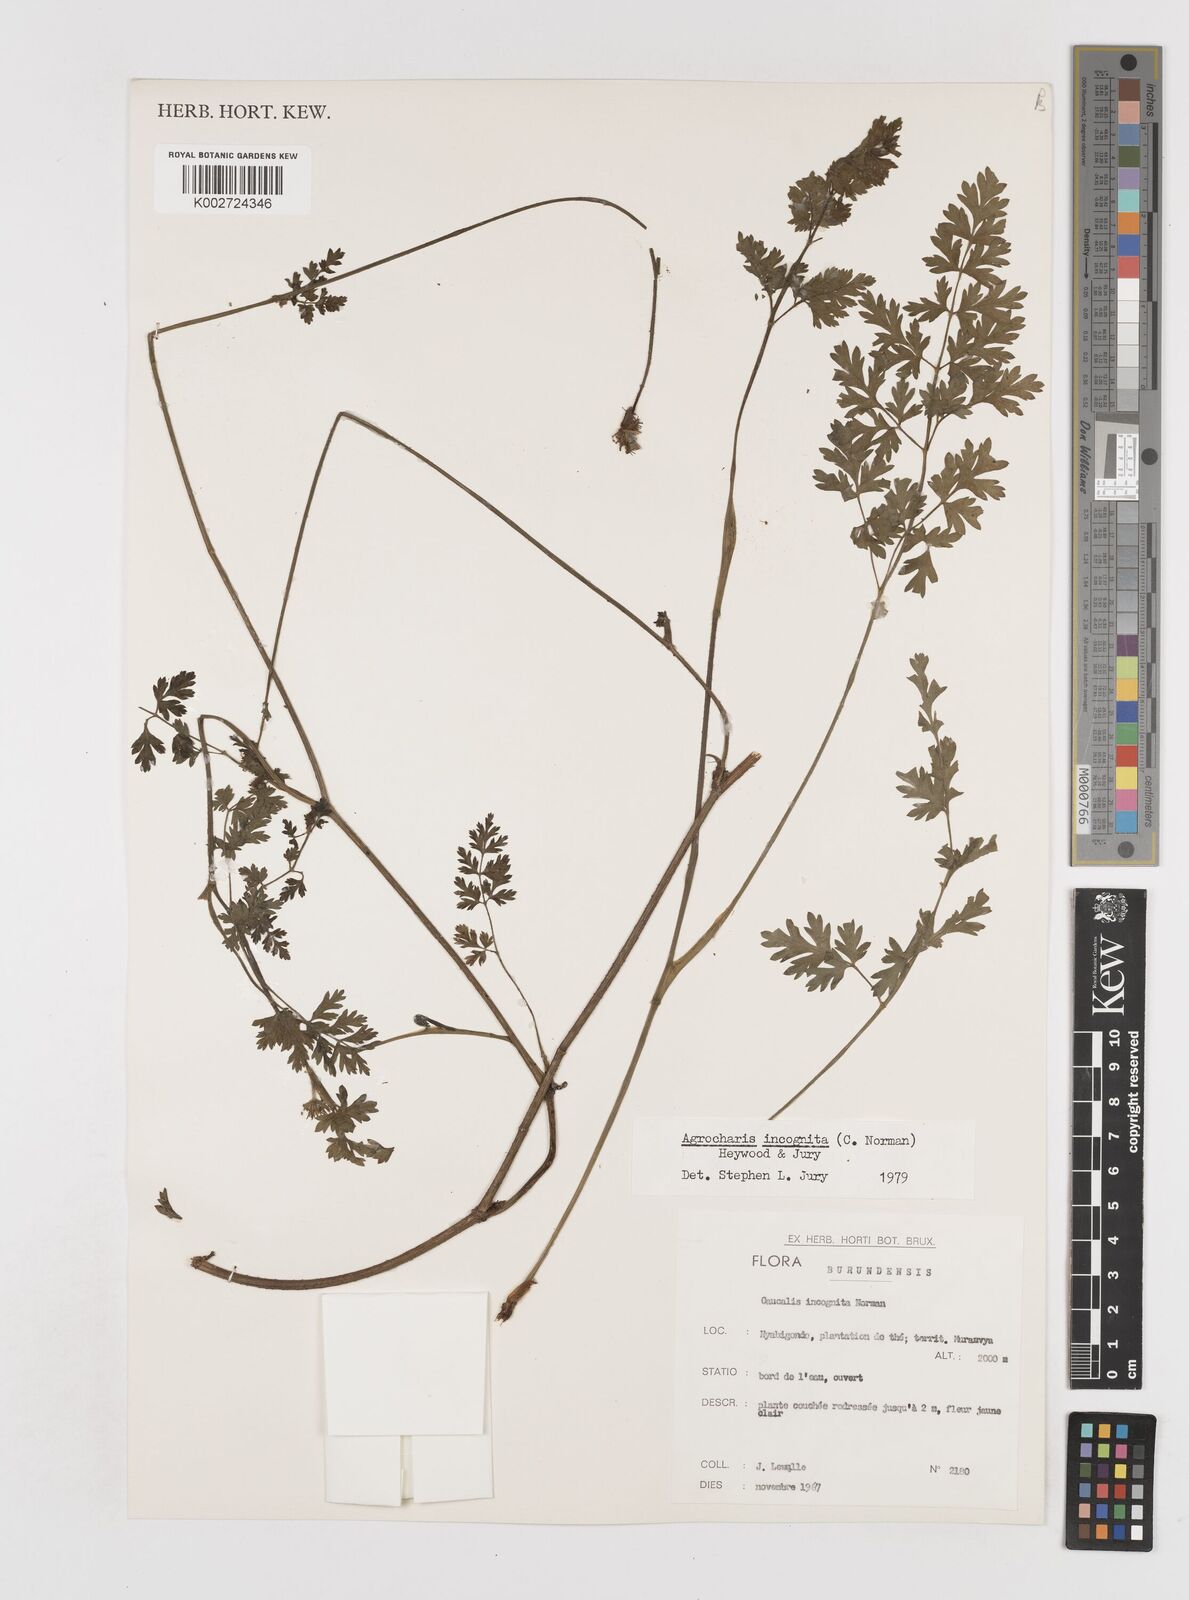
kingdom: Plantae
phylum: Tracheophyta
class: Magnoliopsida
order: Apiales
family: Apiaceae
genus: Daucus
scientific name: Daucus incognitus
